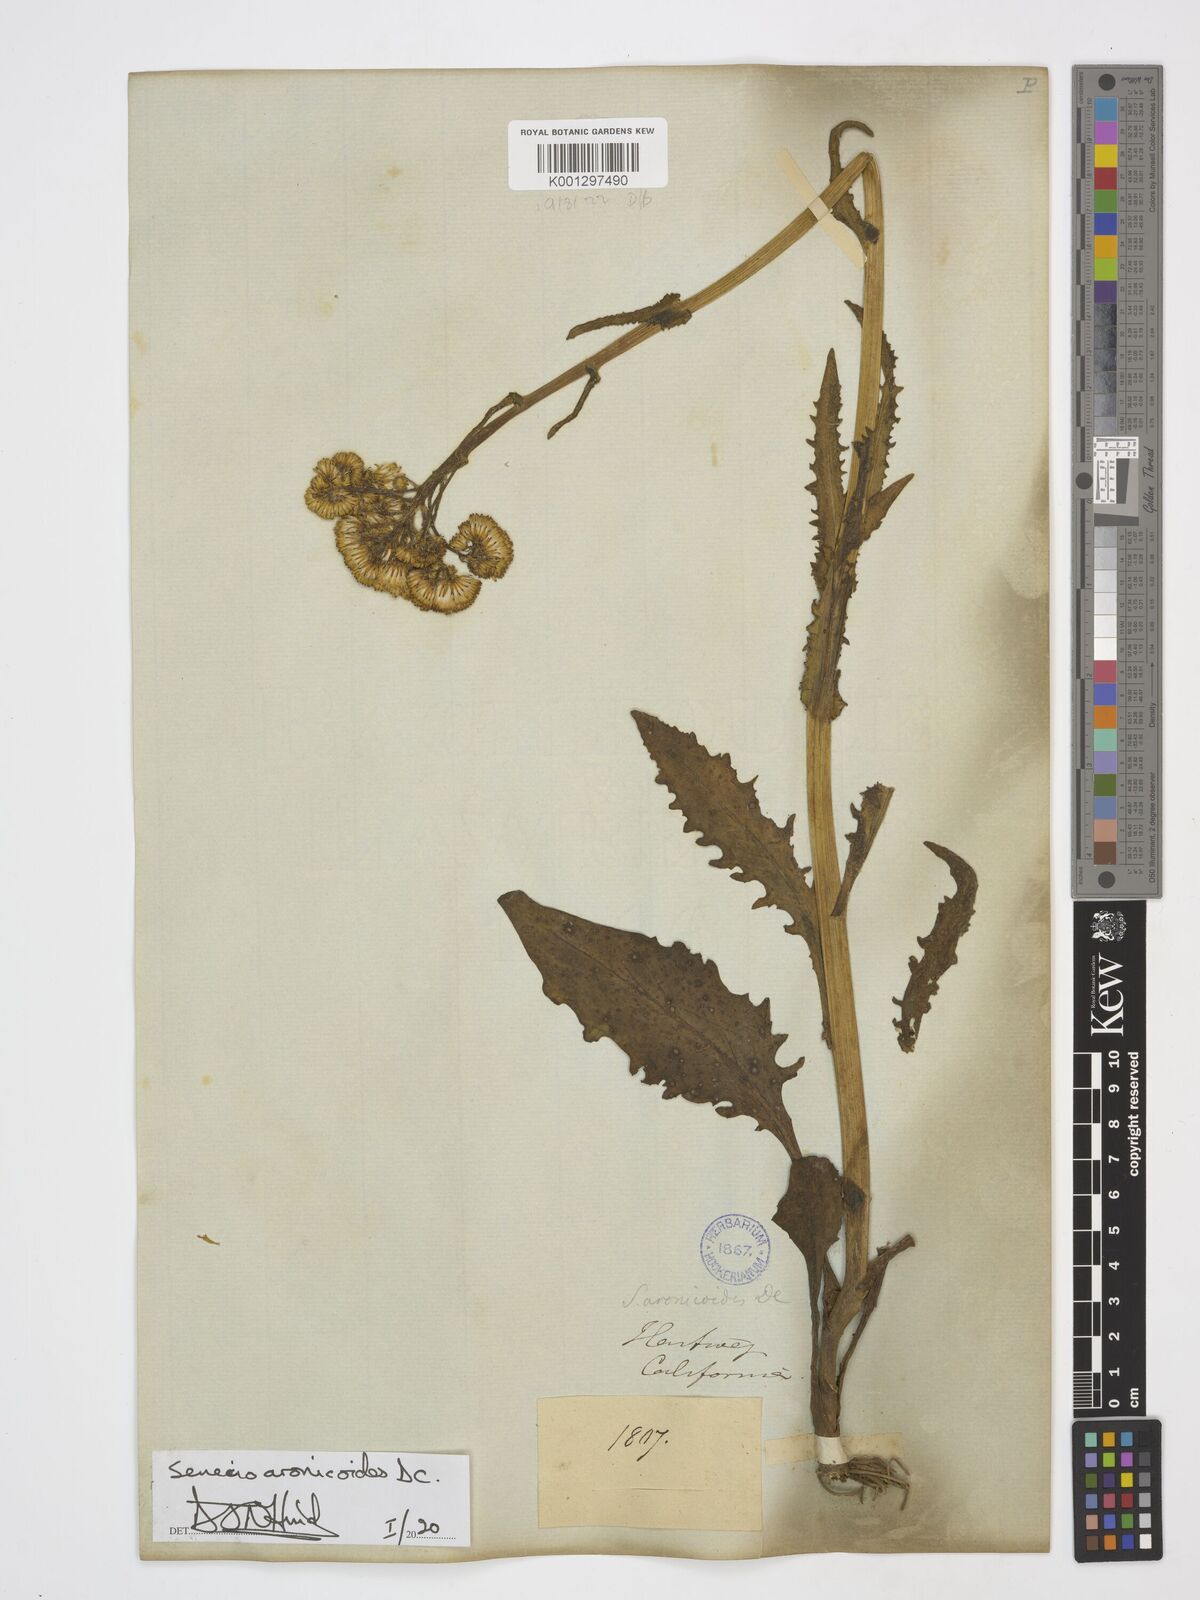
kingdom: Plantae
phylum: Tracheophyta
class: Magnoliopsida
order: Asterales
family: Asteraceae
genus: Senecio
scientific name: Senecio aronicoides
